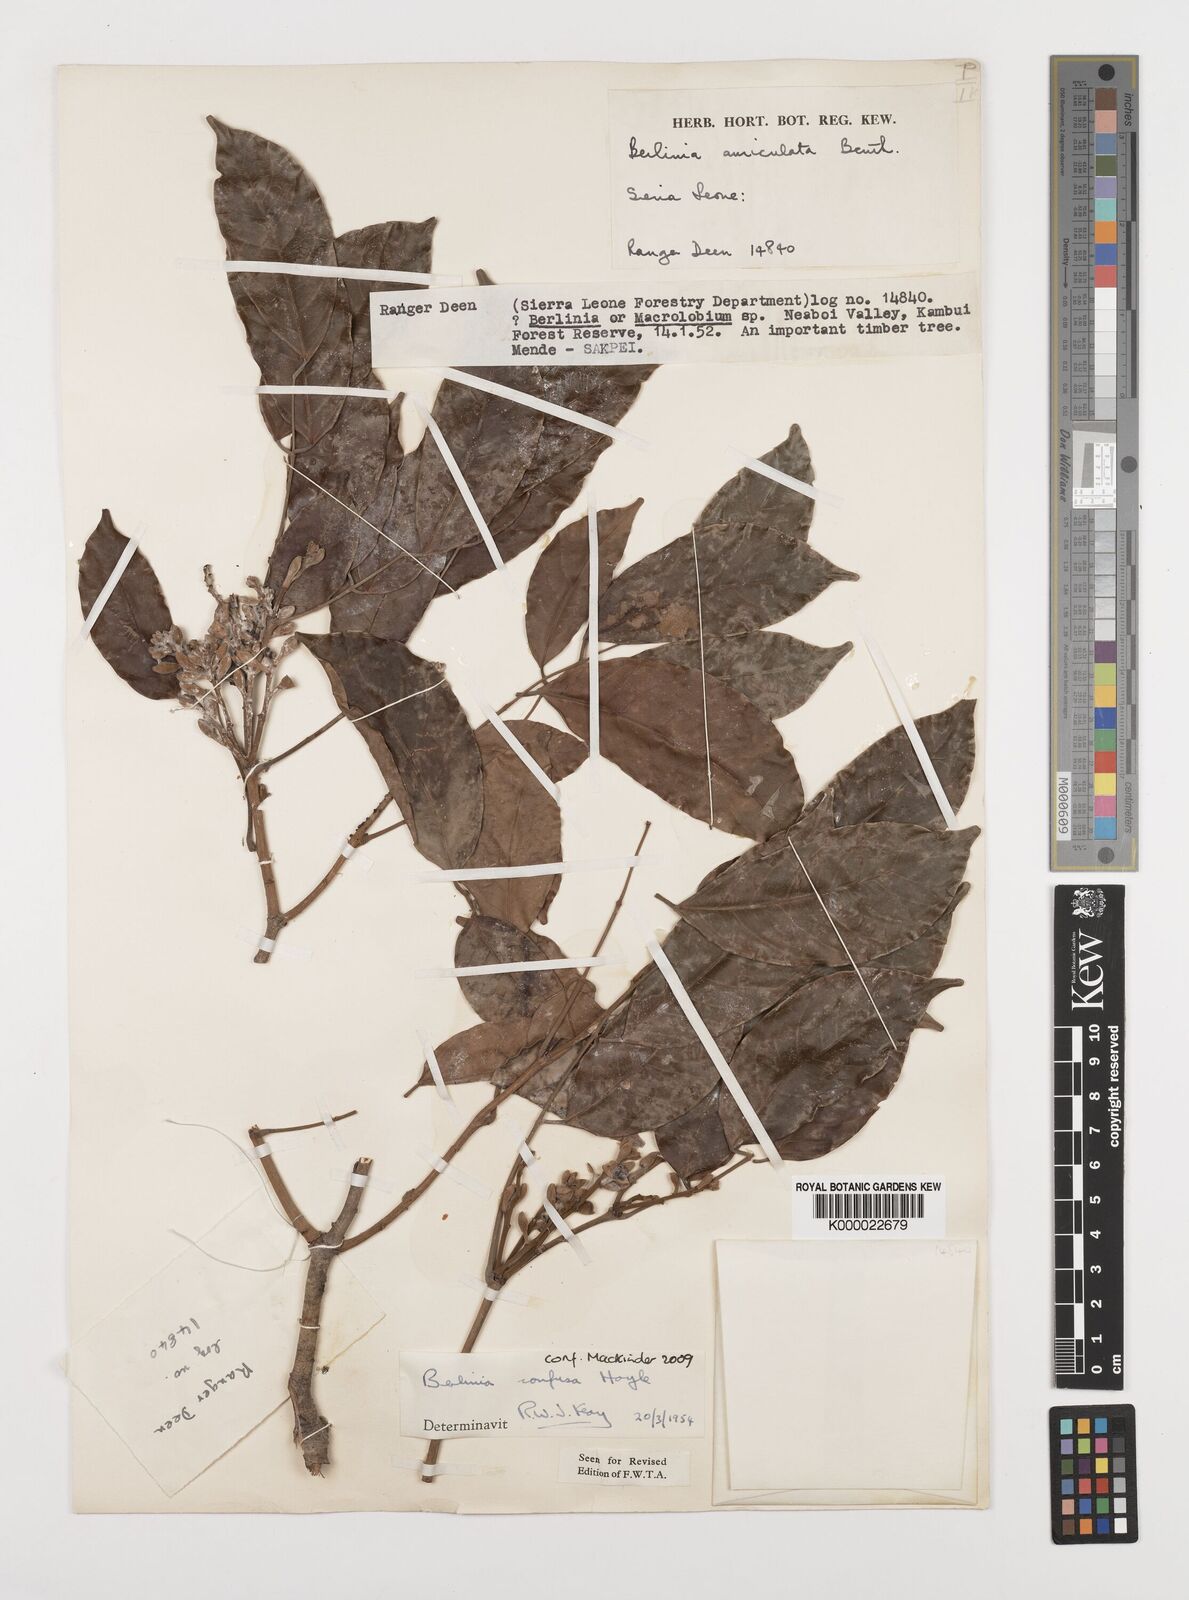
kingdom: Plantae
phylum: Tracheophyta
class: Magnoliopsida
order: Fabales
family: Fabaceae
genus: Berlinia
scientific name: Berlinia confusa
